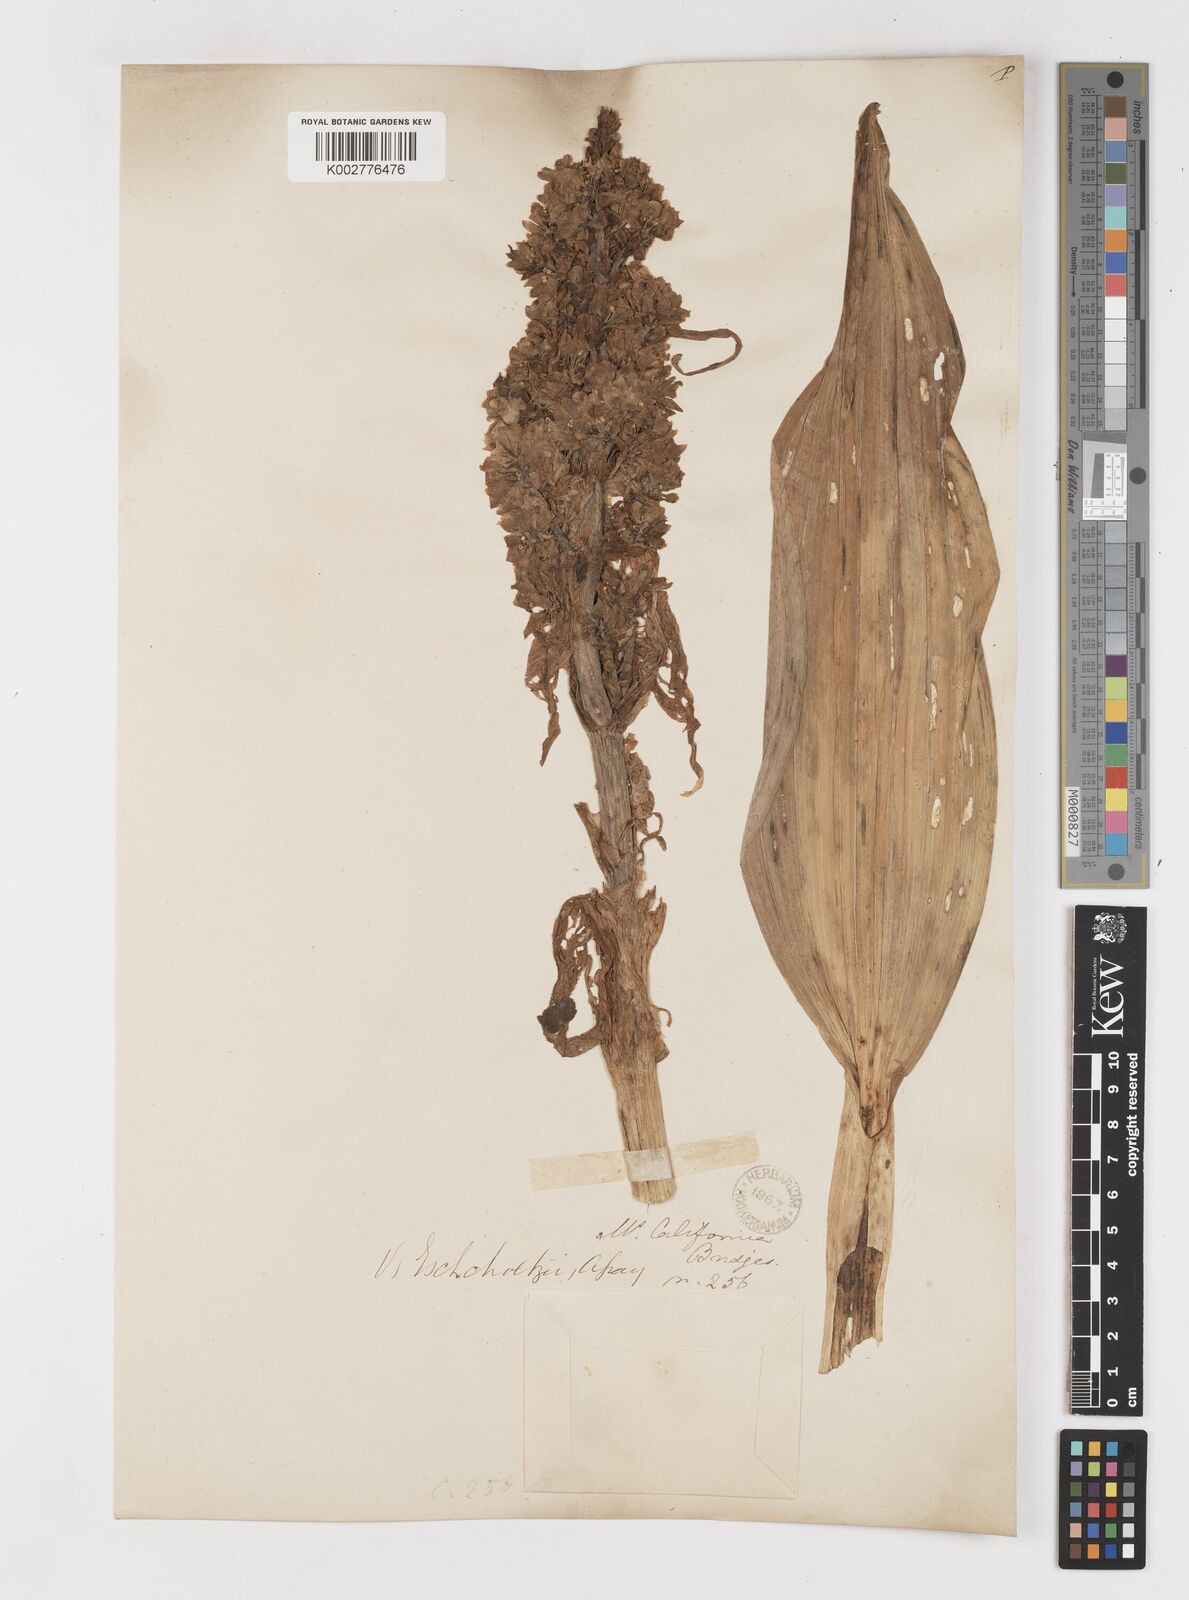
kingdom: Plantae
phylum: Tracheophyta
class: Liliopsida
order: Liliales
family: Melanthiaceae
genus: Veratrum
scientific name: Veratrum californicum
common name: California veratrum
